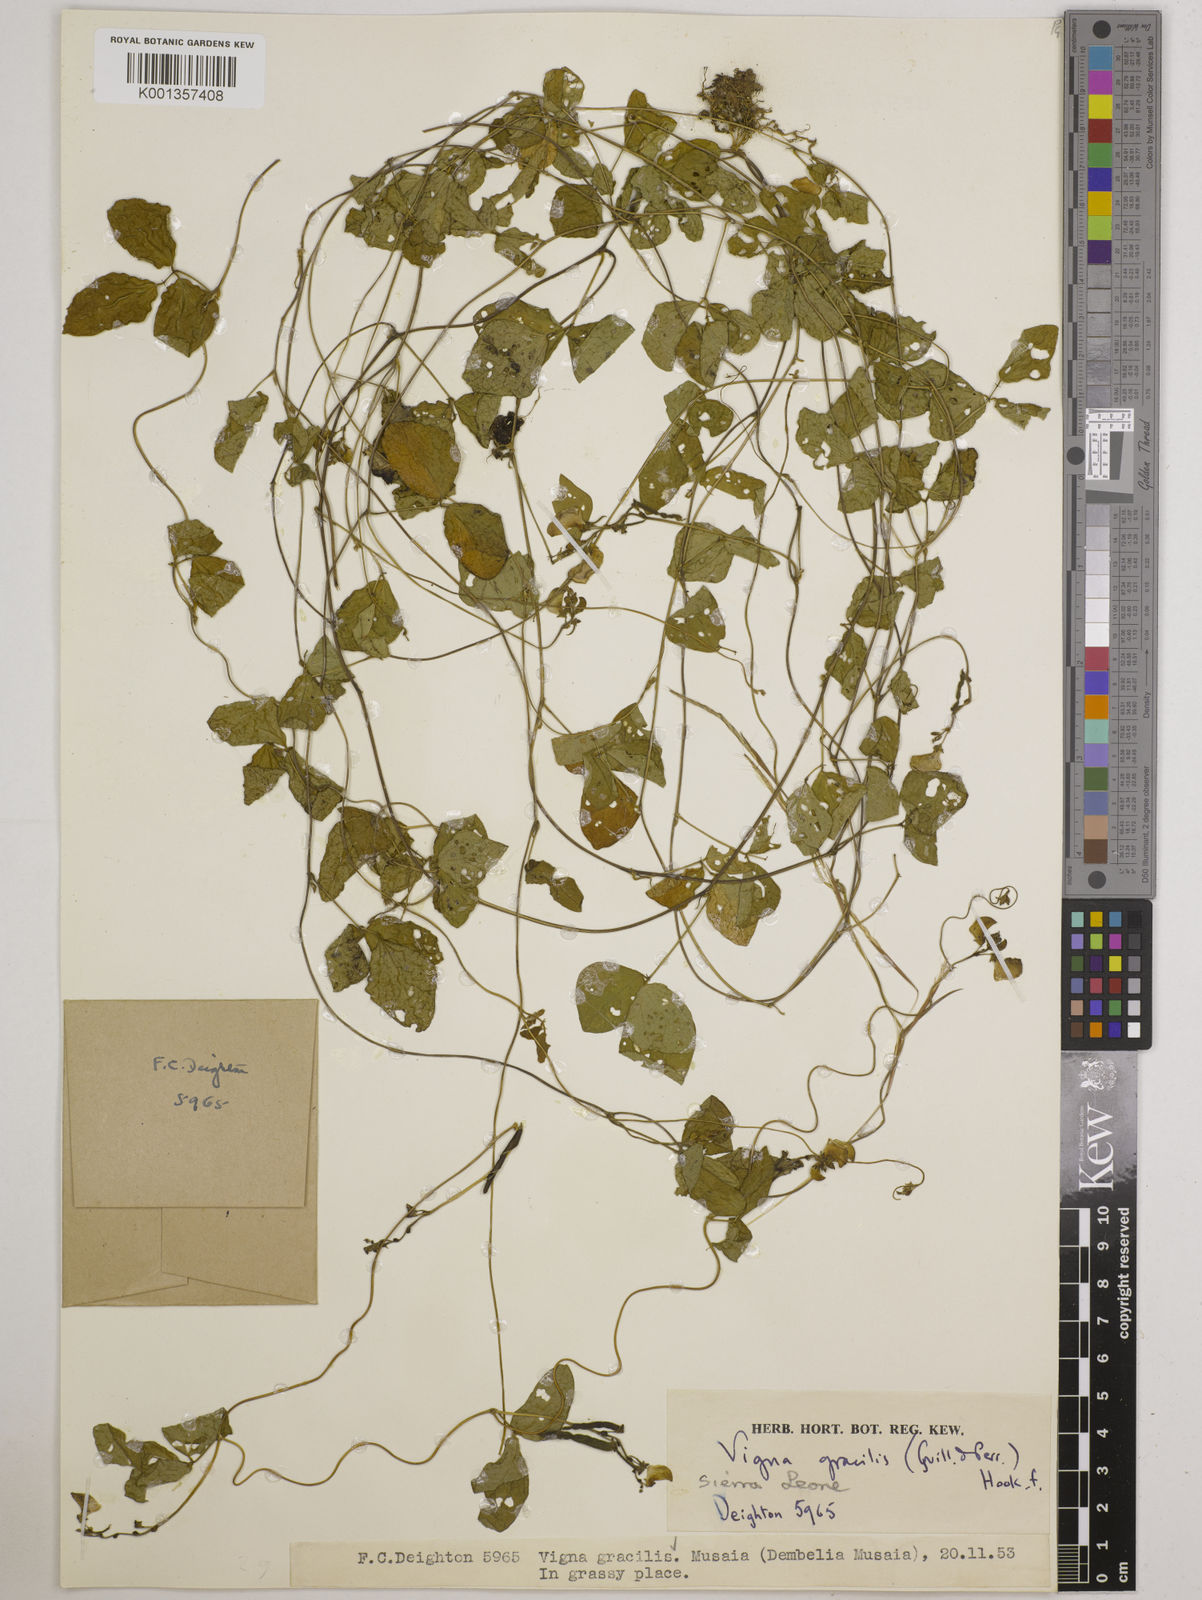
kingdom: Plantae
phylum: Tracheophyta
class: Magnoliopsida
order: Fabales
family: Fabaceae
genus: Vigna
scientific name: Vigna gracilis
